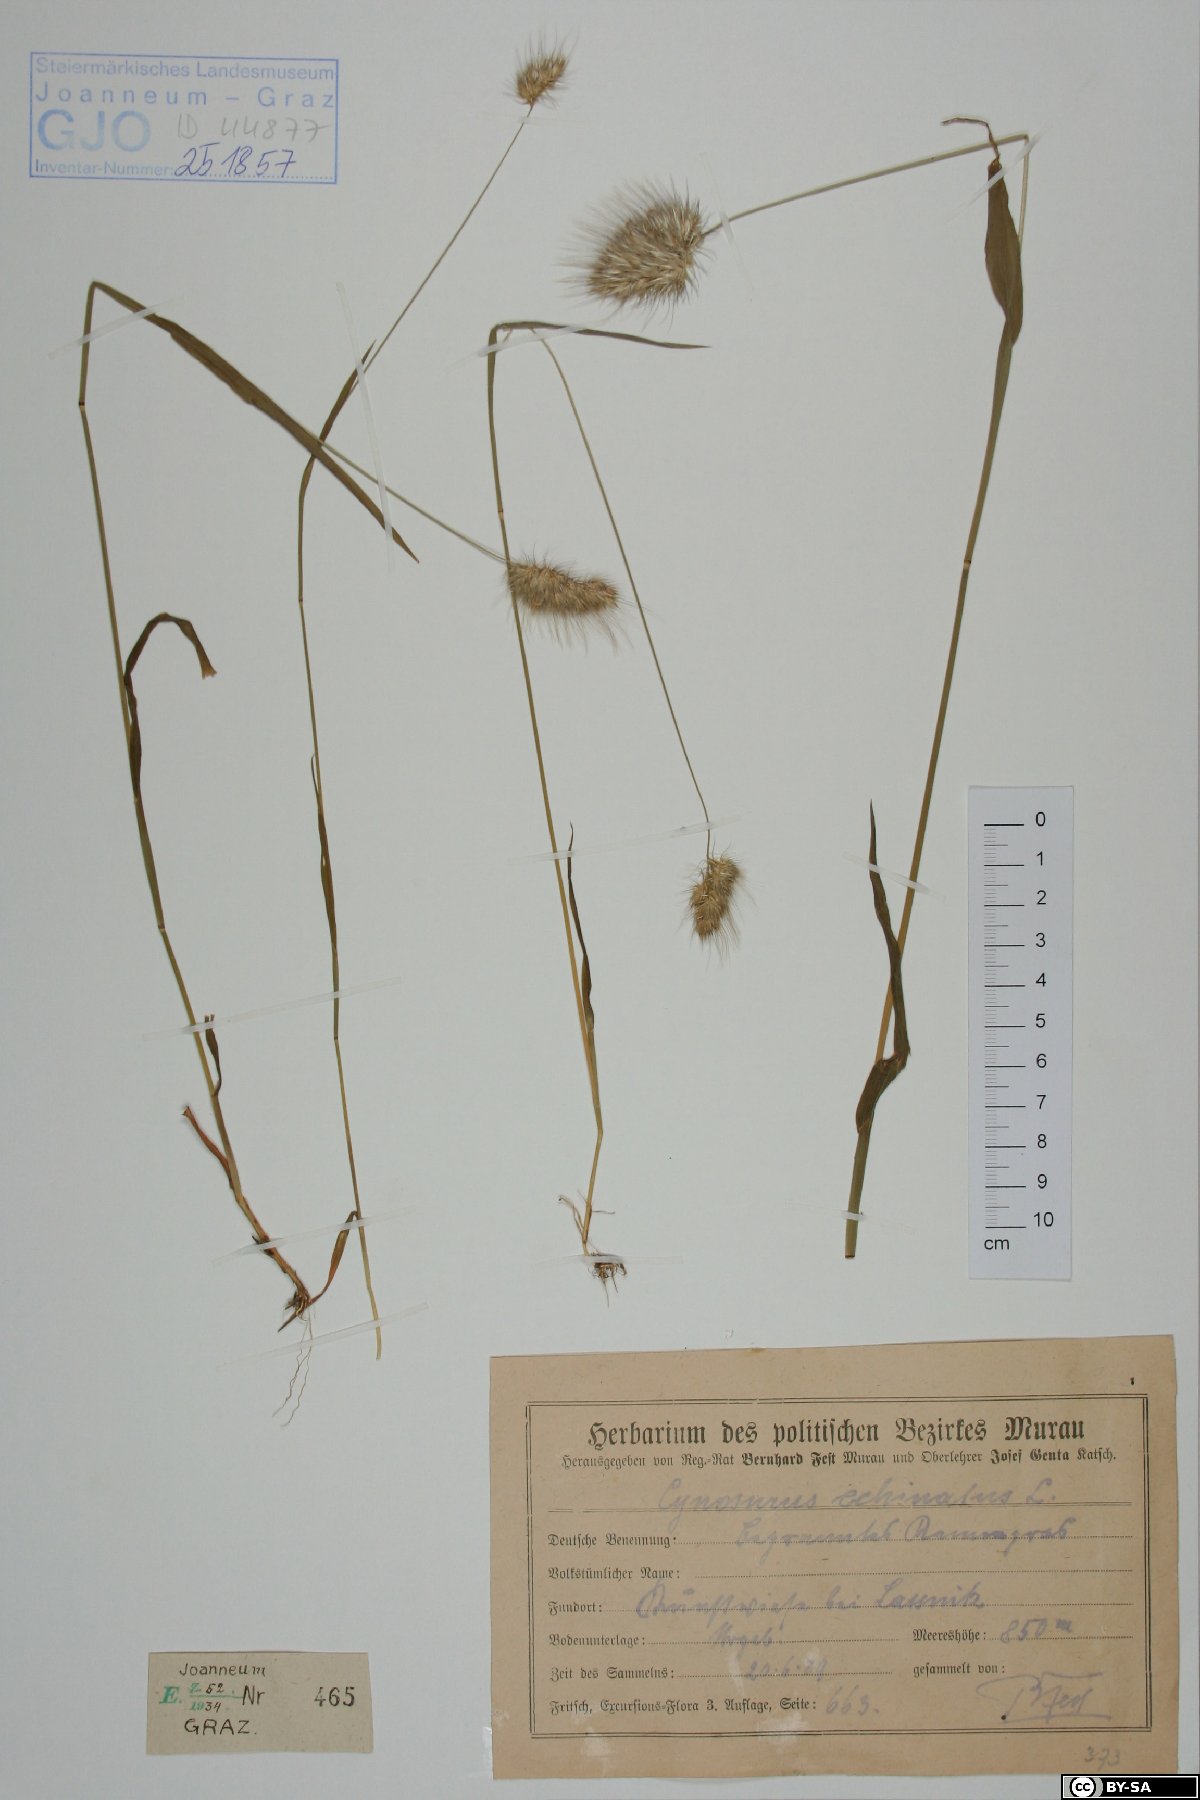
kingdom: Plantae
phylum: Tracheophyta
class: Liliopsida
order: Poales
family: Poaceae
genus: Cynosurus
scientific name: Cynosurus echinatus
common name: Rough dog's-tail
